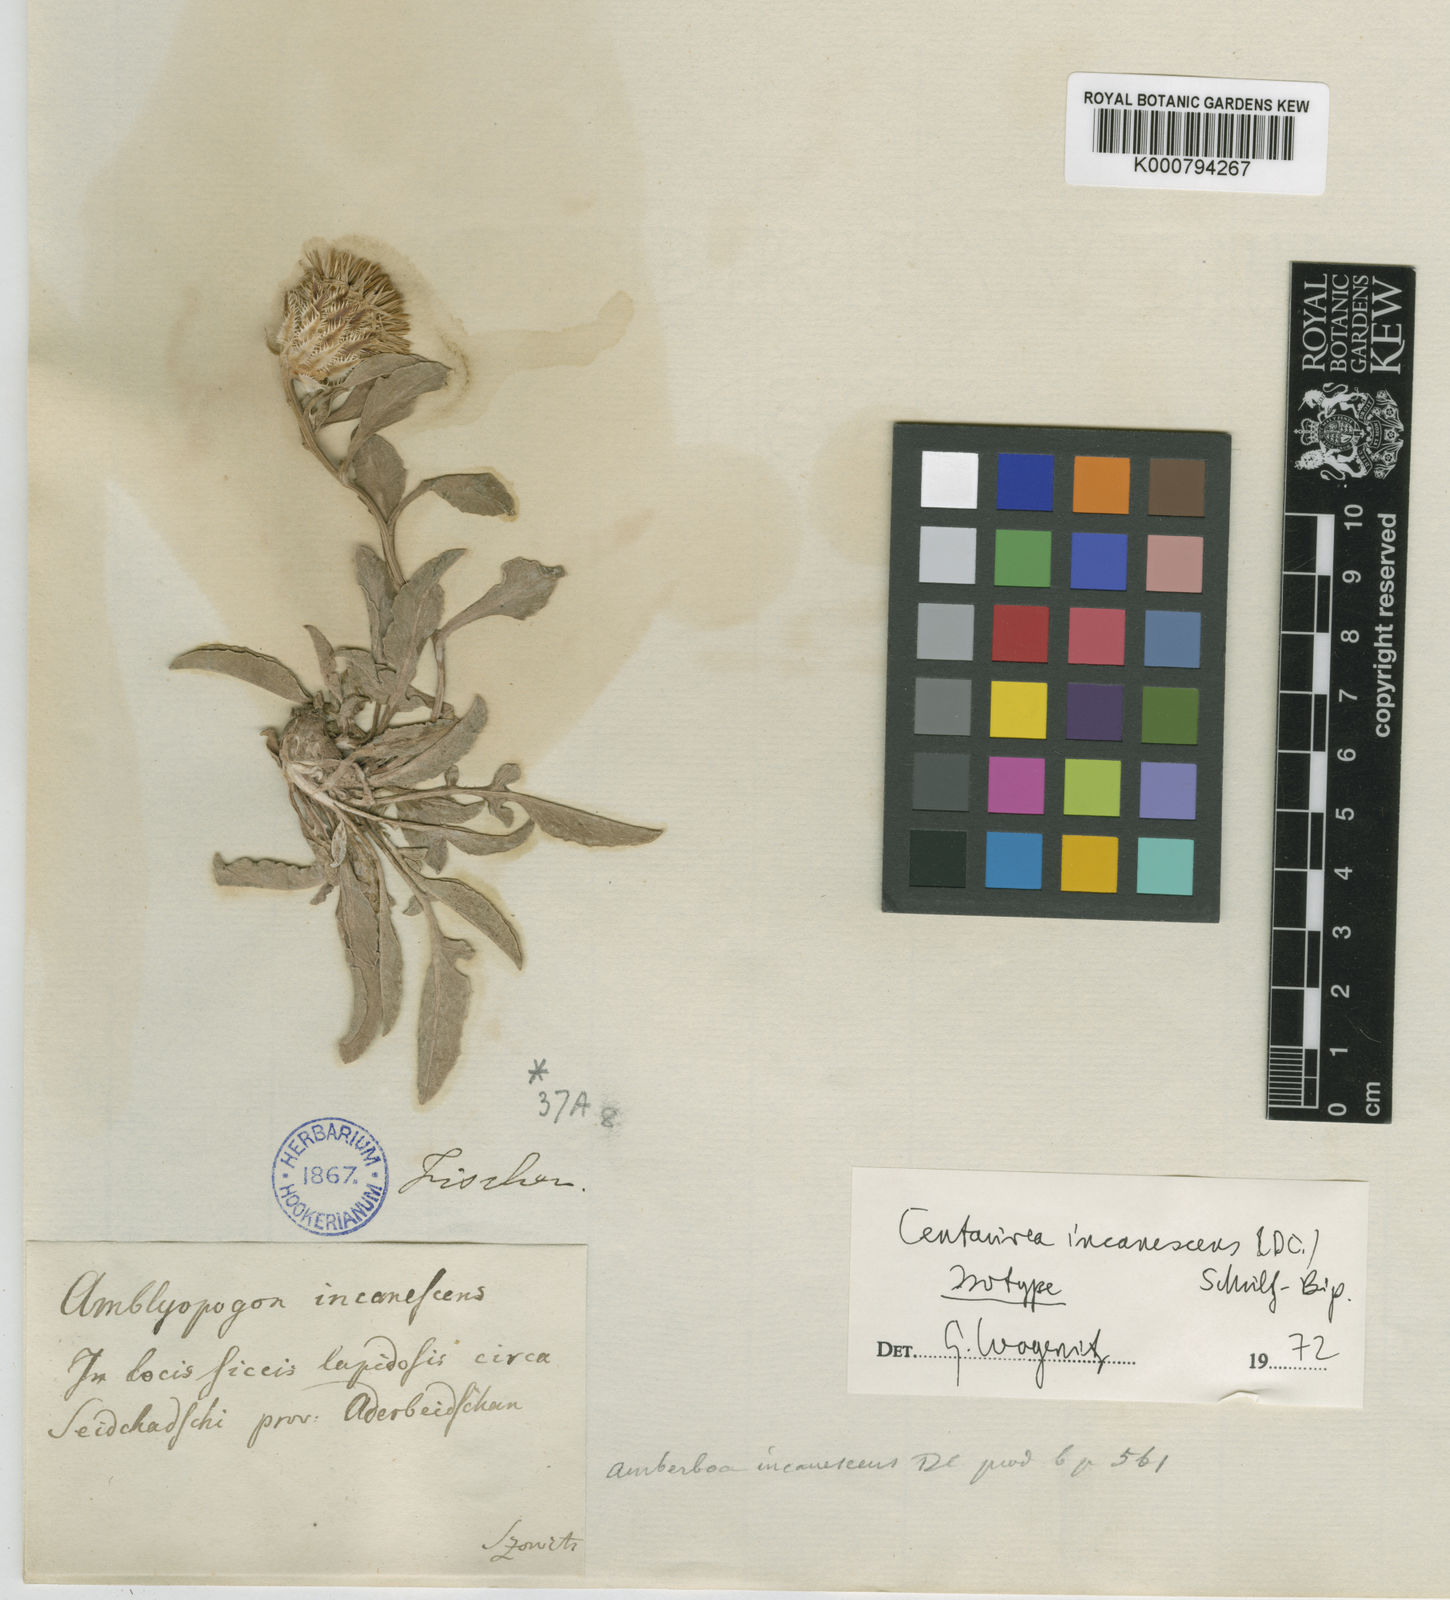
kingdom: Plantae
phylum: Tracheophyta
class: Magnoliopsida
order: Asterales
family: Asteraceae
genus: Psephellus
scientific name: Psephellus incanescens
